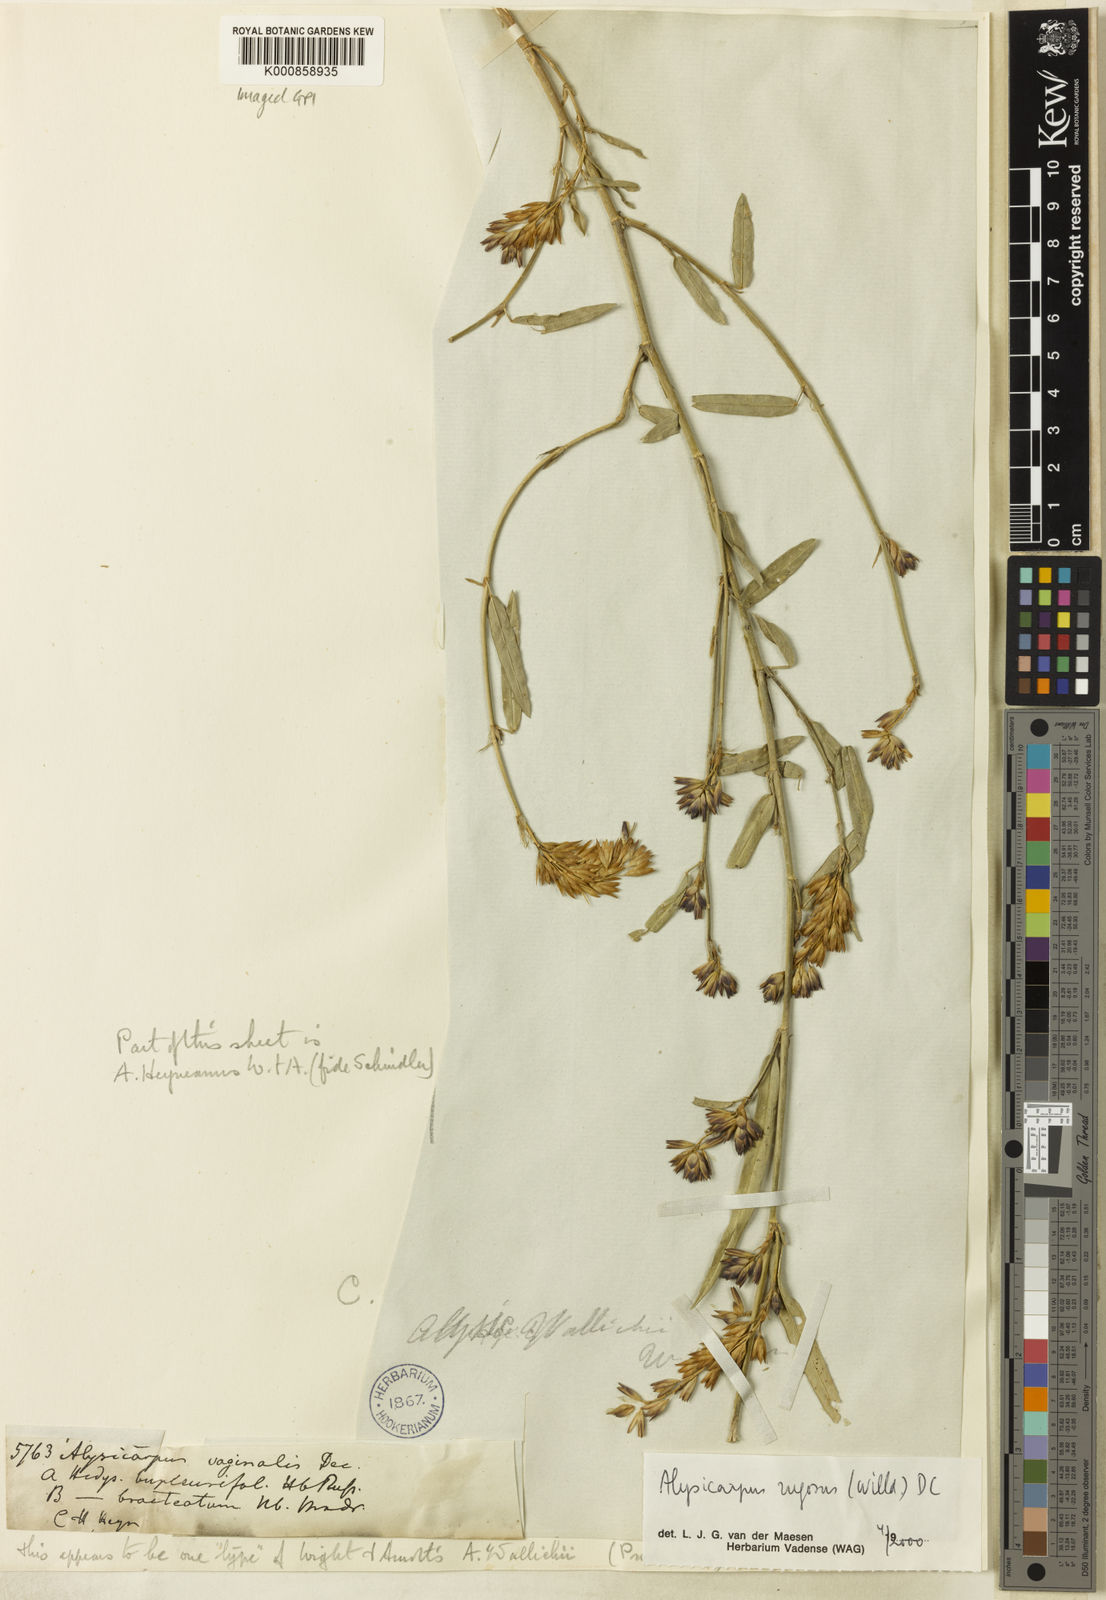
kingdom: Plantae
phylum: Tracheophyta
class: Magnoliopsida
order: Fabales
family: Fabaceae
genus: Alysicarpus
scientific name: Alysicarpus vaginalis
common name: White moneywort
